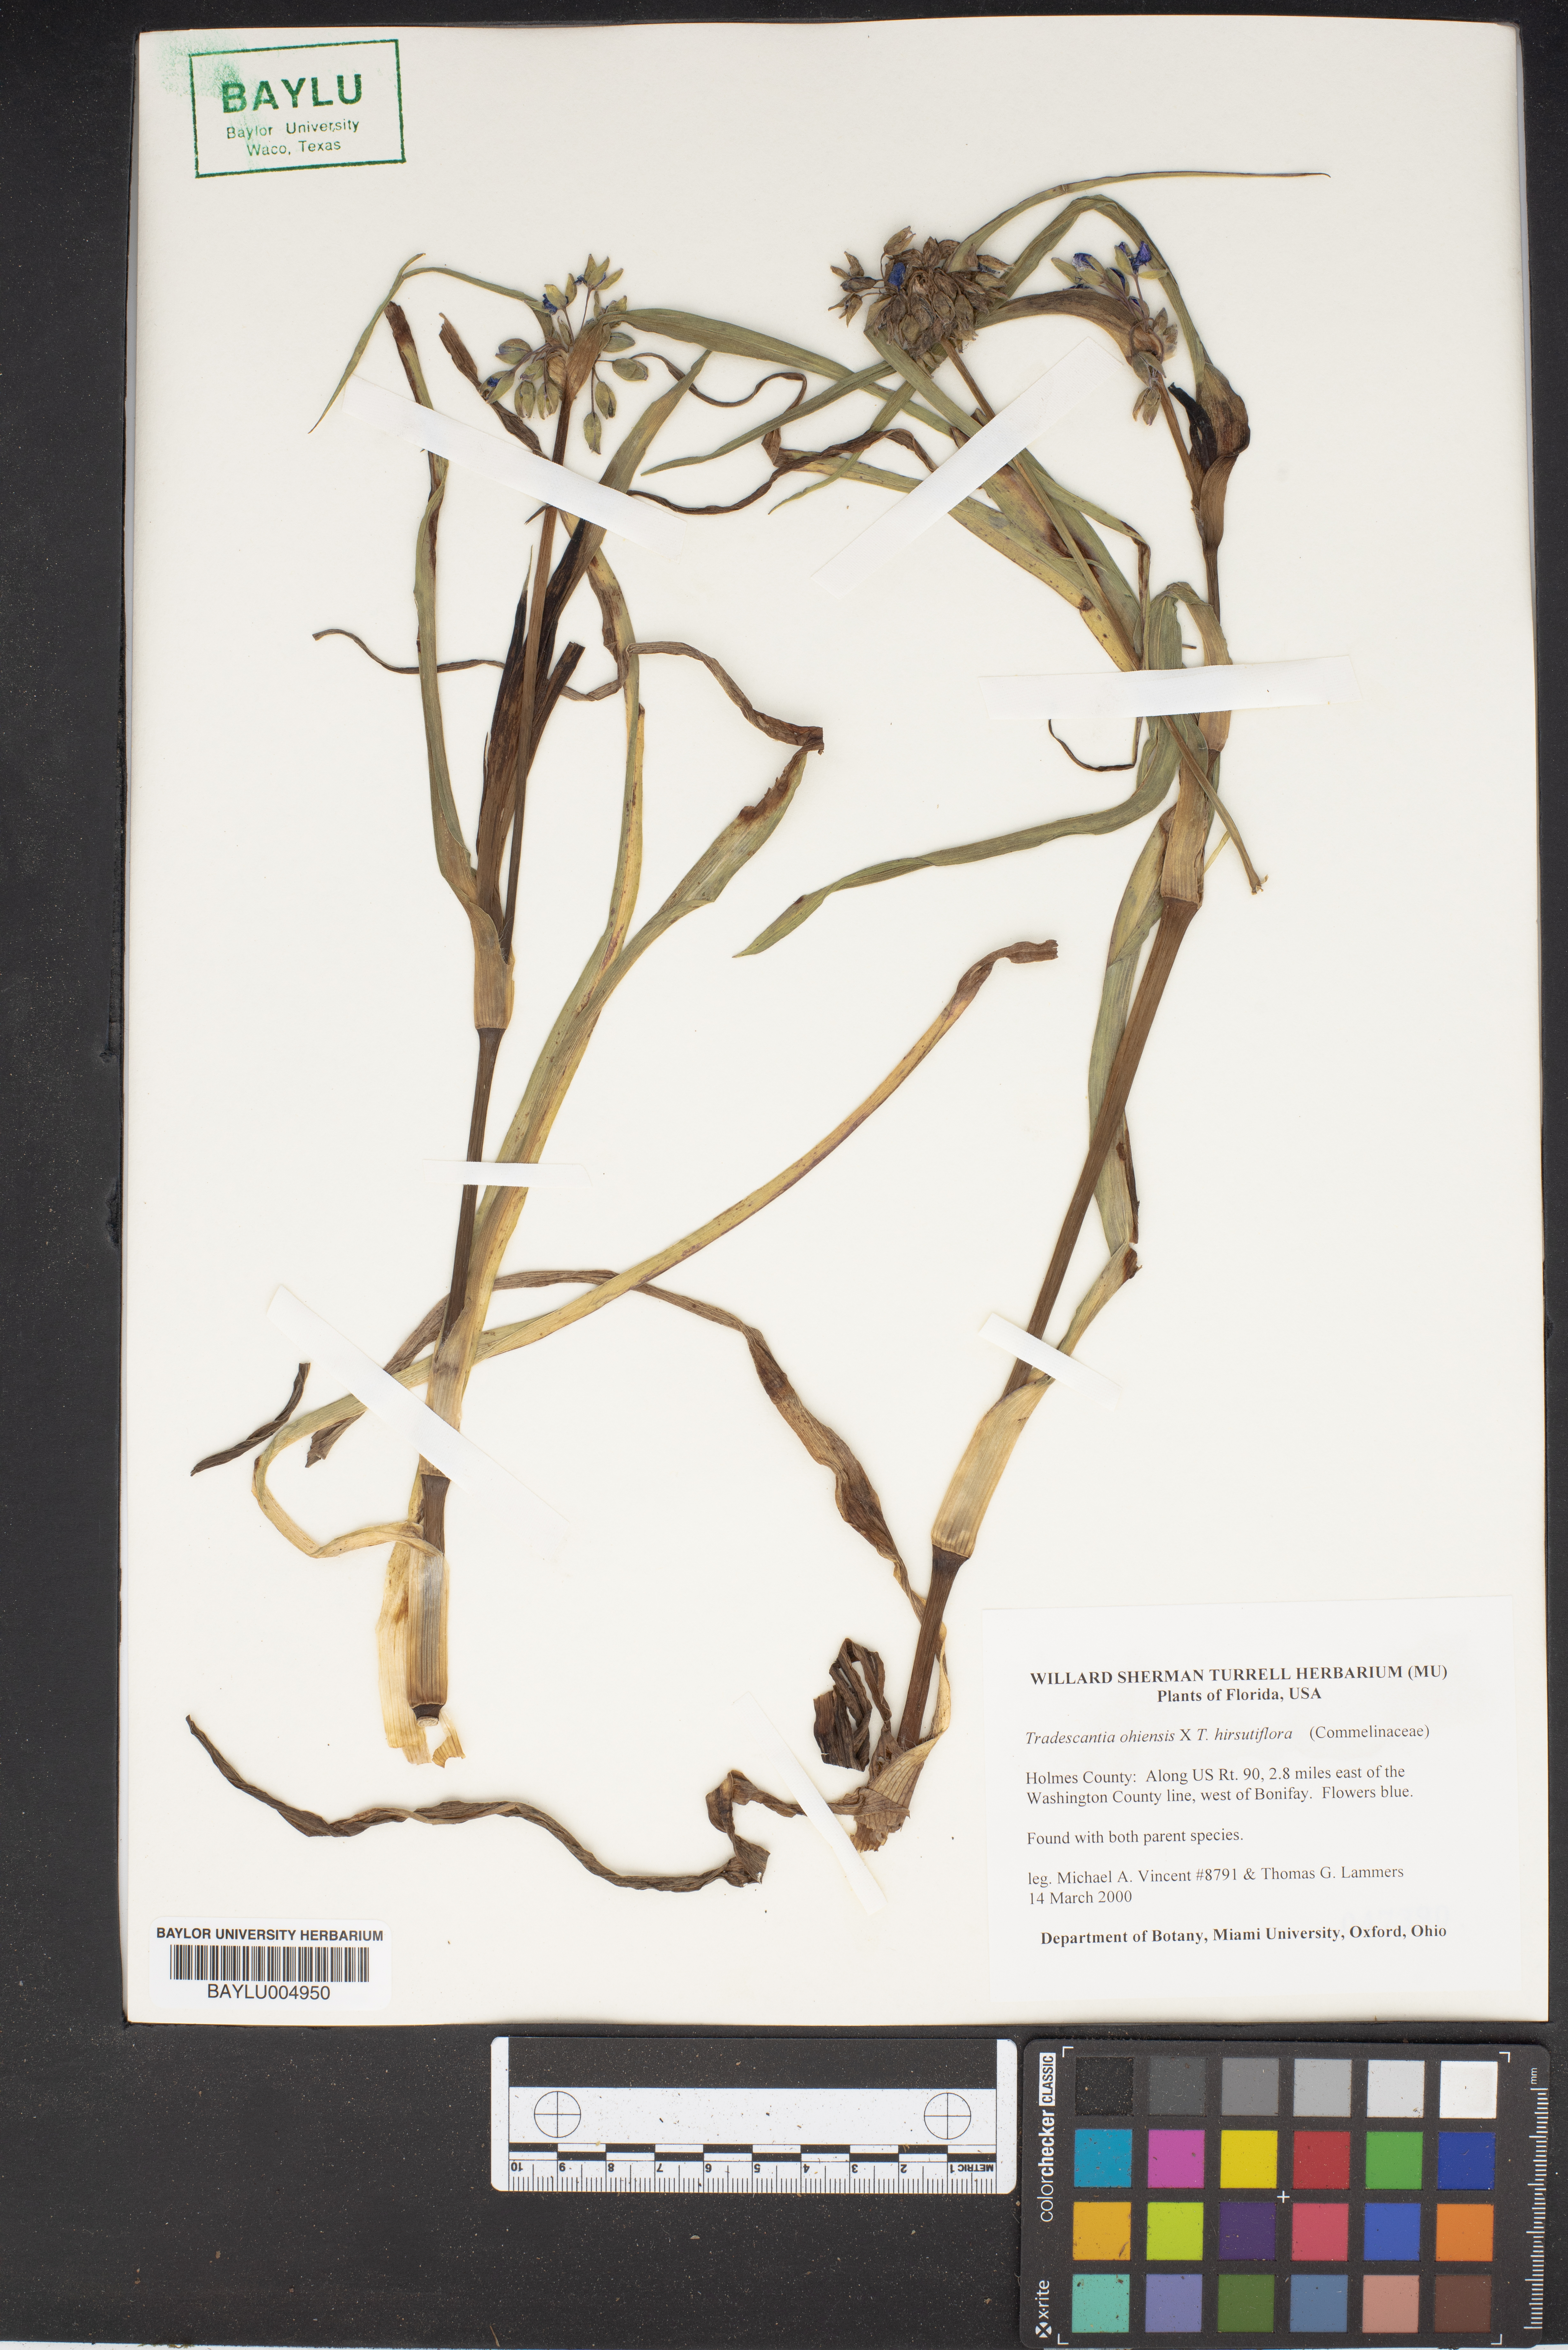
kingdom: Plantae
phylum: Tracheophyta
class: Liliopsida
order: Commelinales
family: Commelinaceae
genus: Tradescantia
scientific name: Tradescantia ohiensis
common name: Ohio spiderwort
